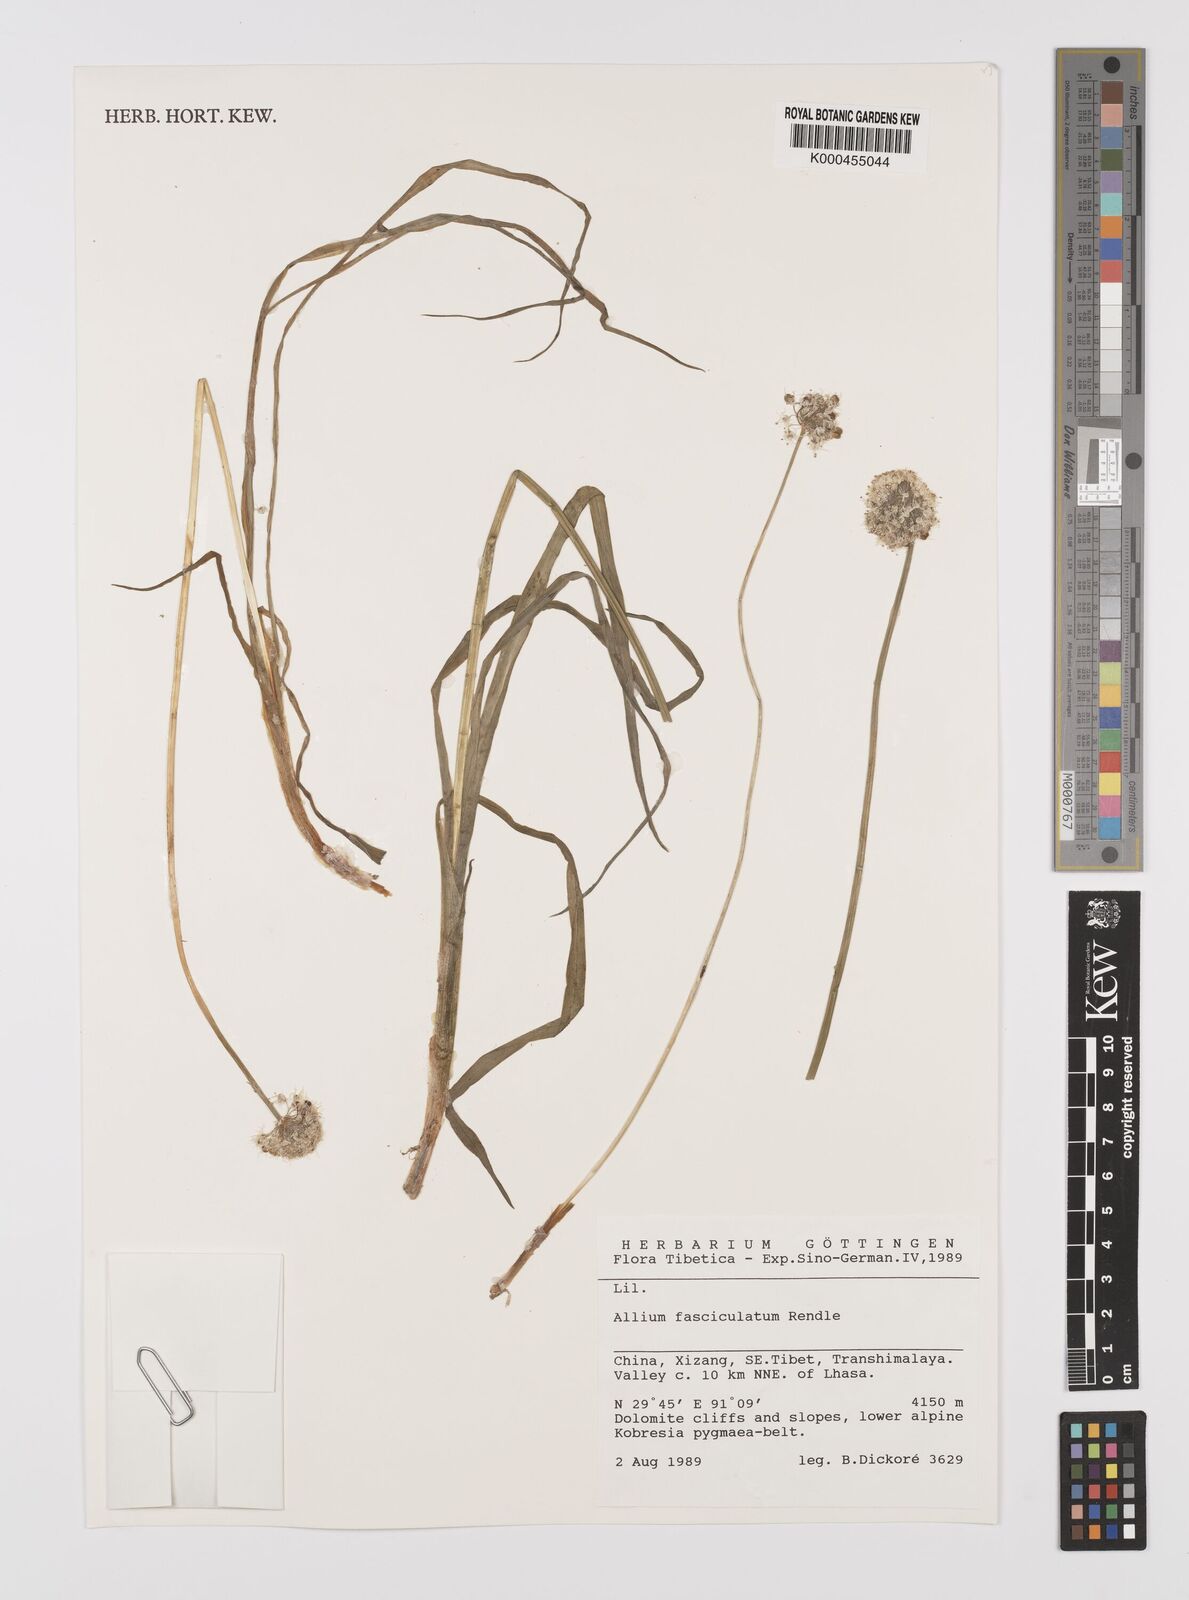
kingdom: Plantae
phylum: Tracheophyta
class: Liliopsida
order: Asparagales
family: Amaryllidaceae
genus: Allium
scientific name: Allium fasciculatum
